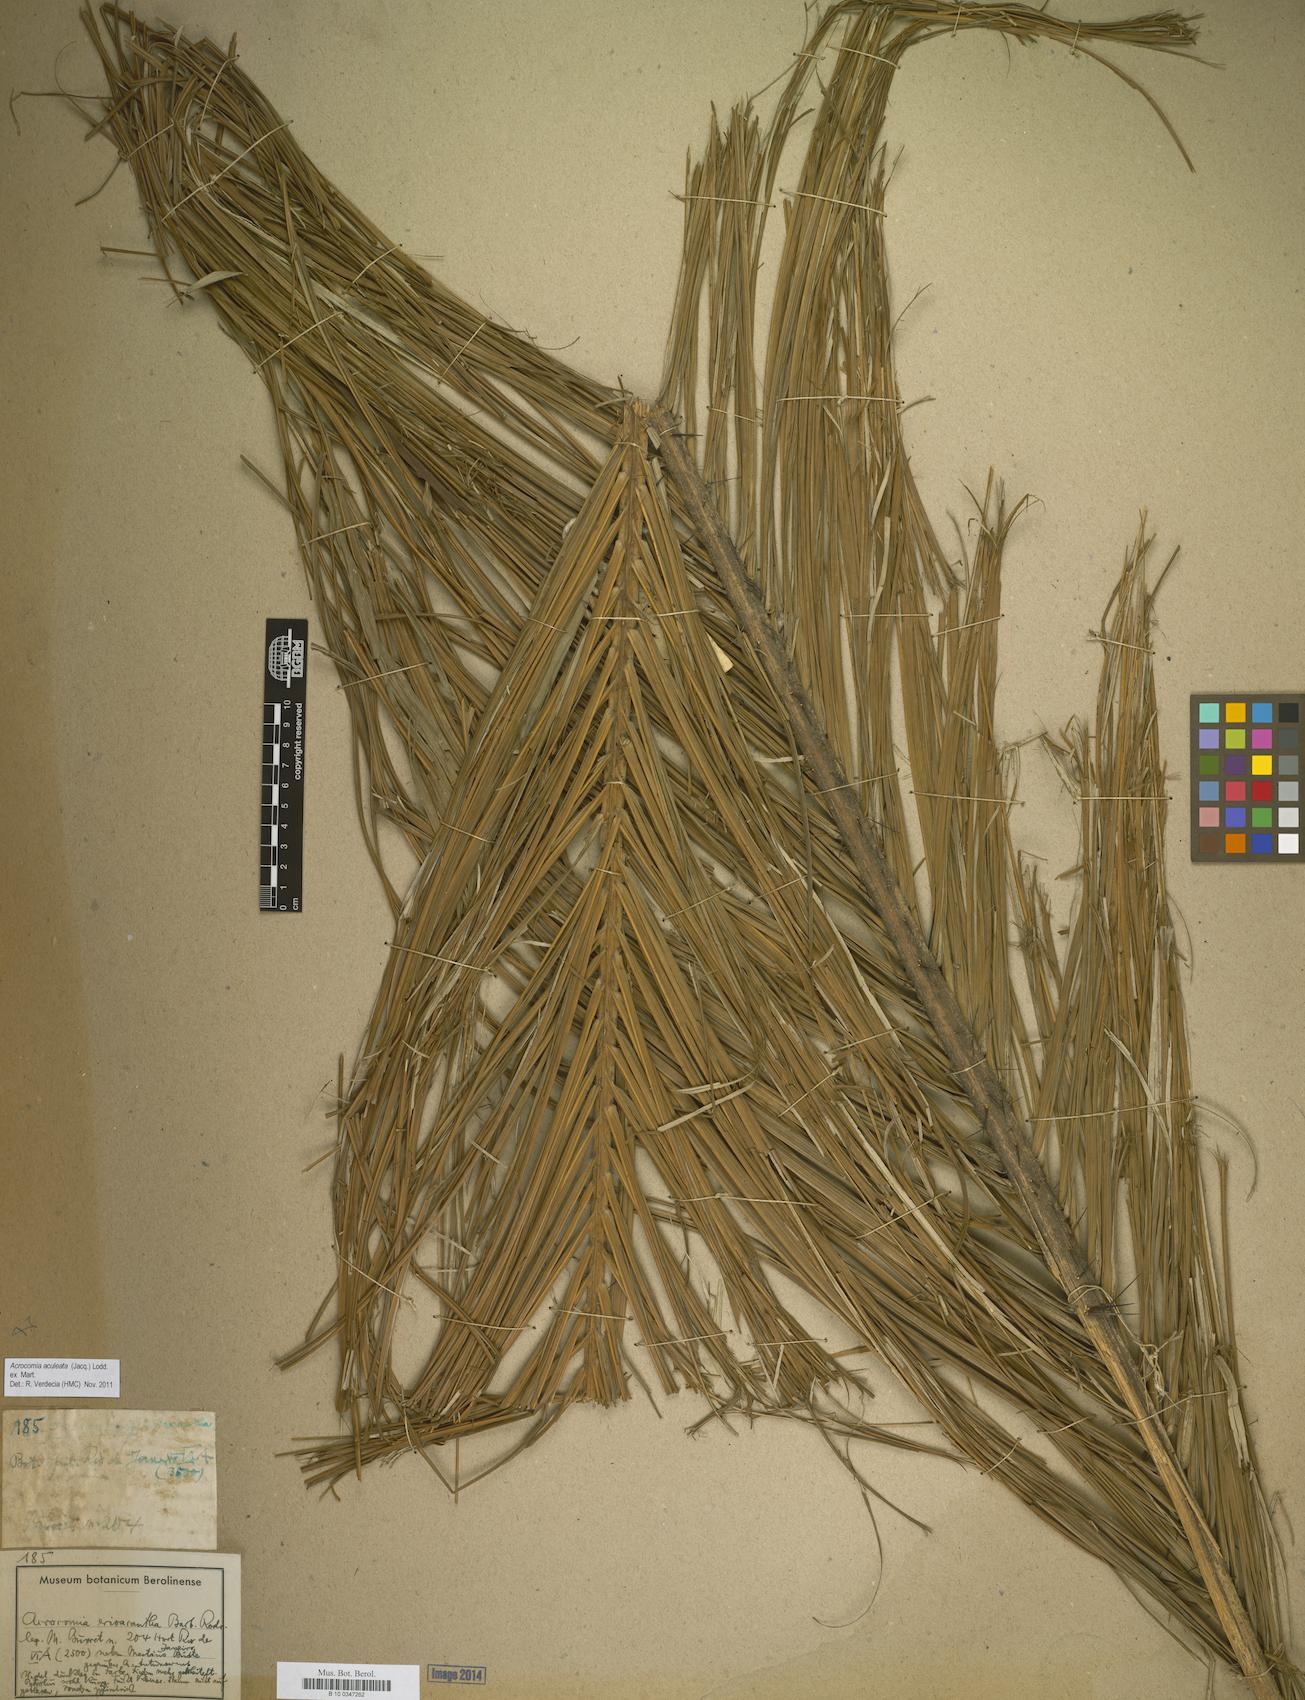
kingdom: Plantae
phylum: Tracheophyta
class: Liliopsida
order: Arecales
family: Arecaceae
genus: Acrocomia
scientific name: Acrocomia aculeata
